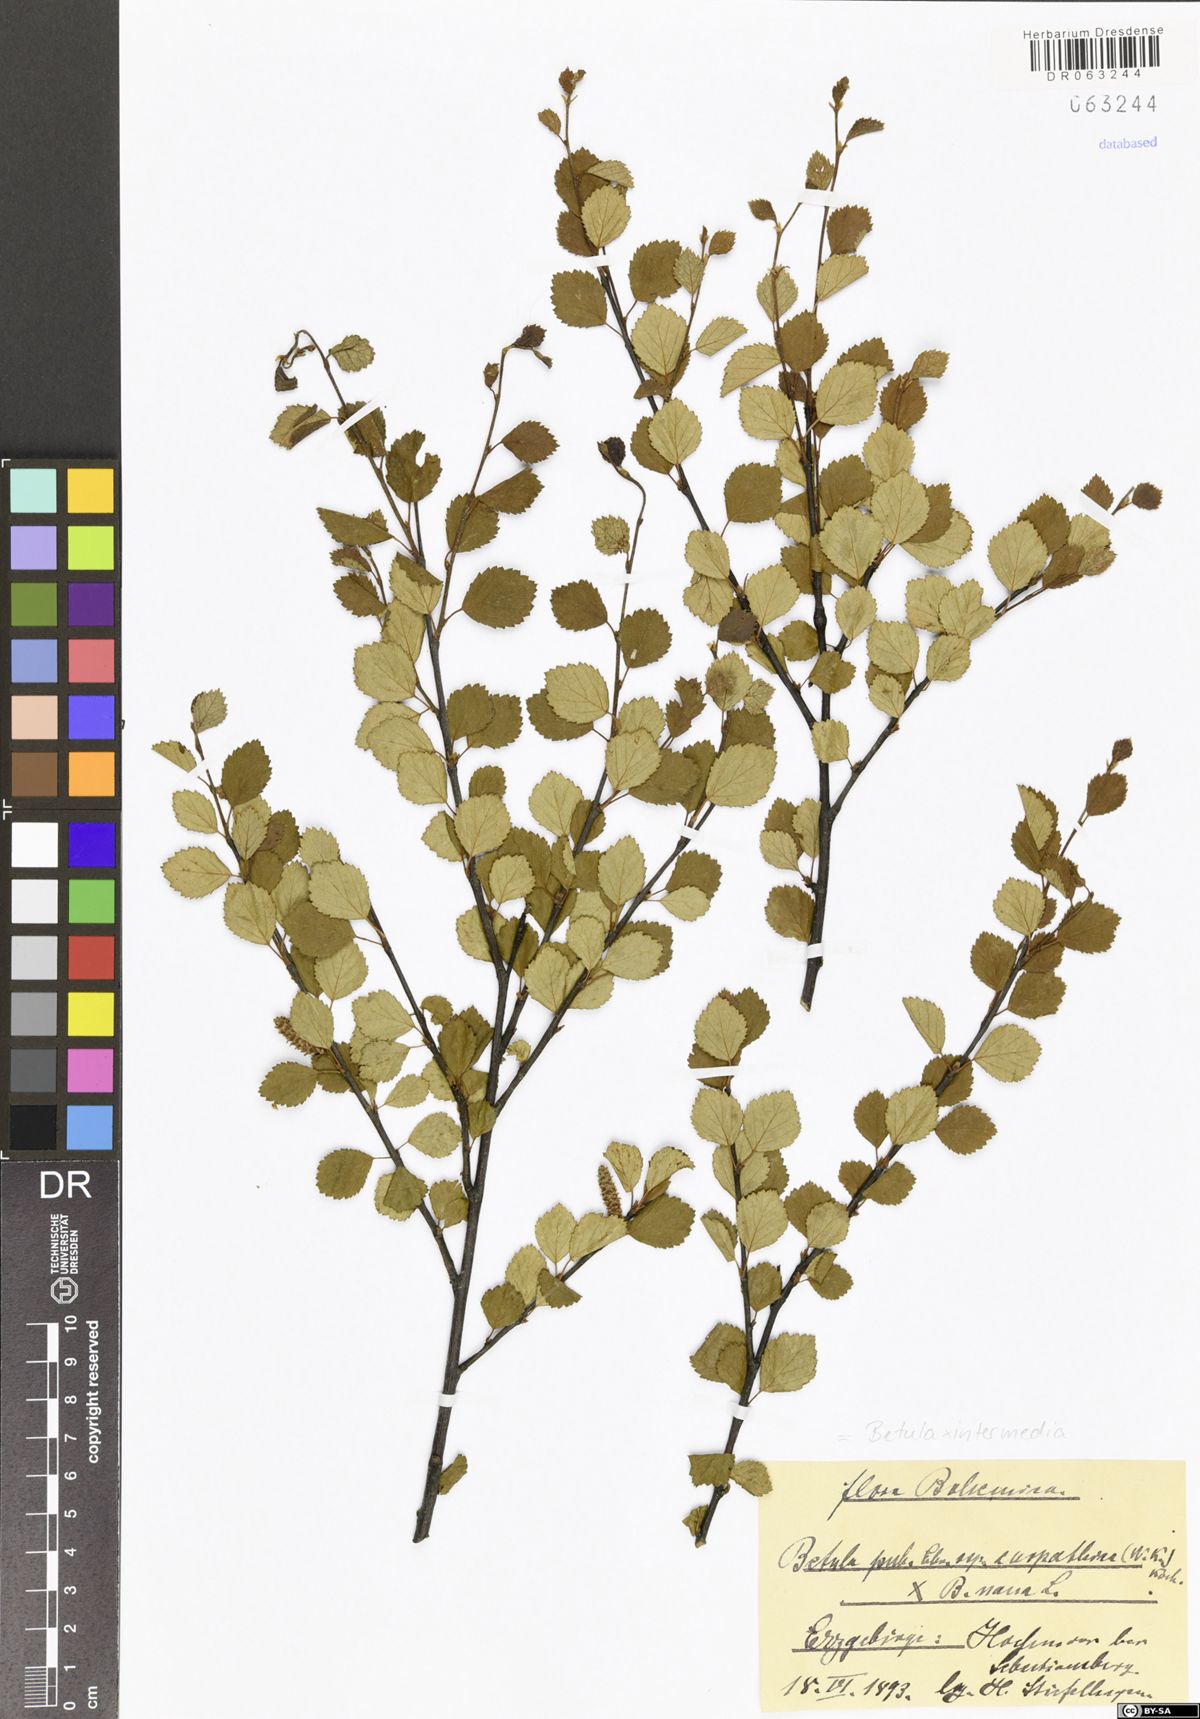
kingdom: Plantae
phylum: Tracheophyta
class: Magnoliopsida
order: Fagales
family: Betulaceae
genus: Betula
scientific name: Betula intermedia
